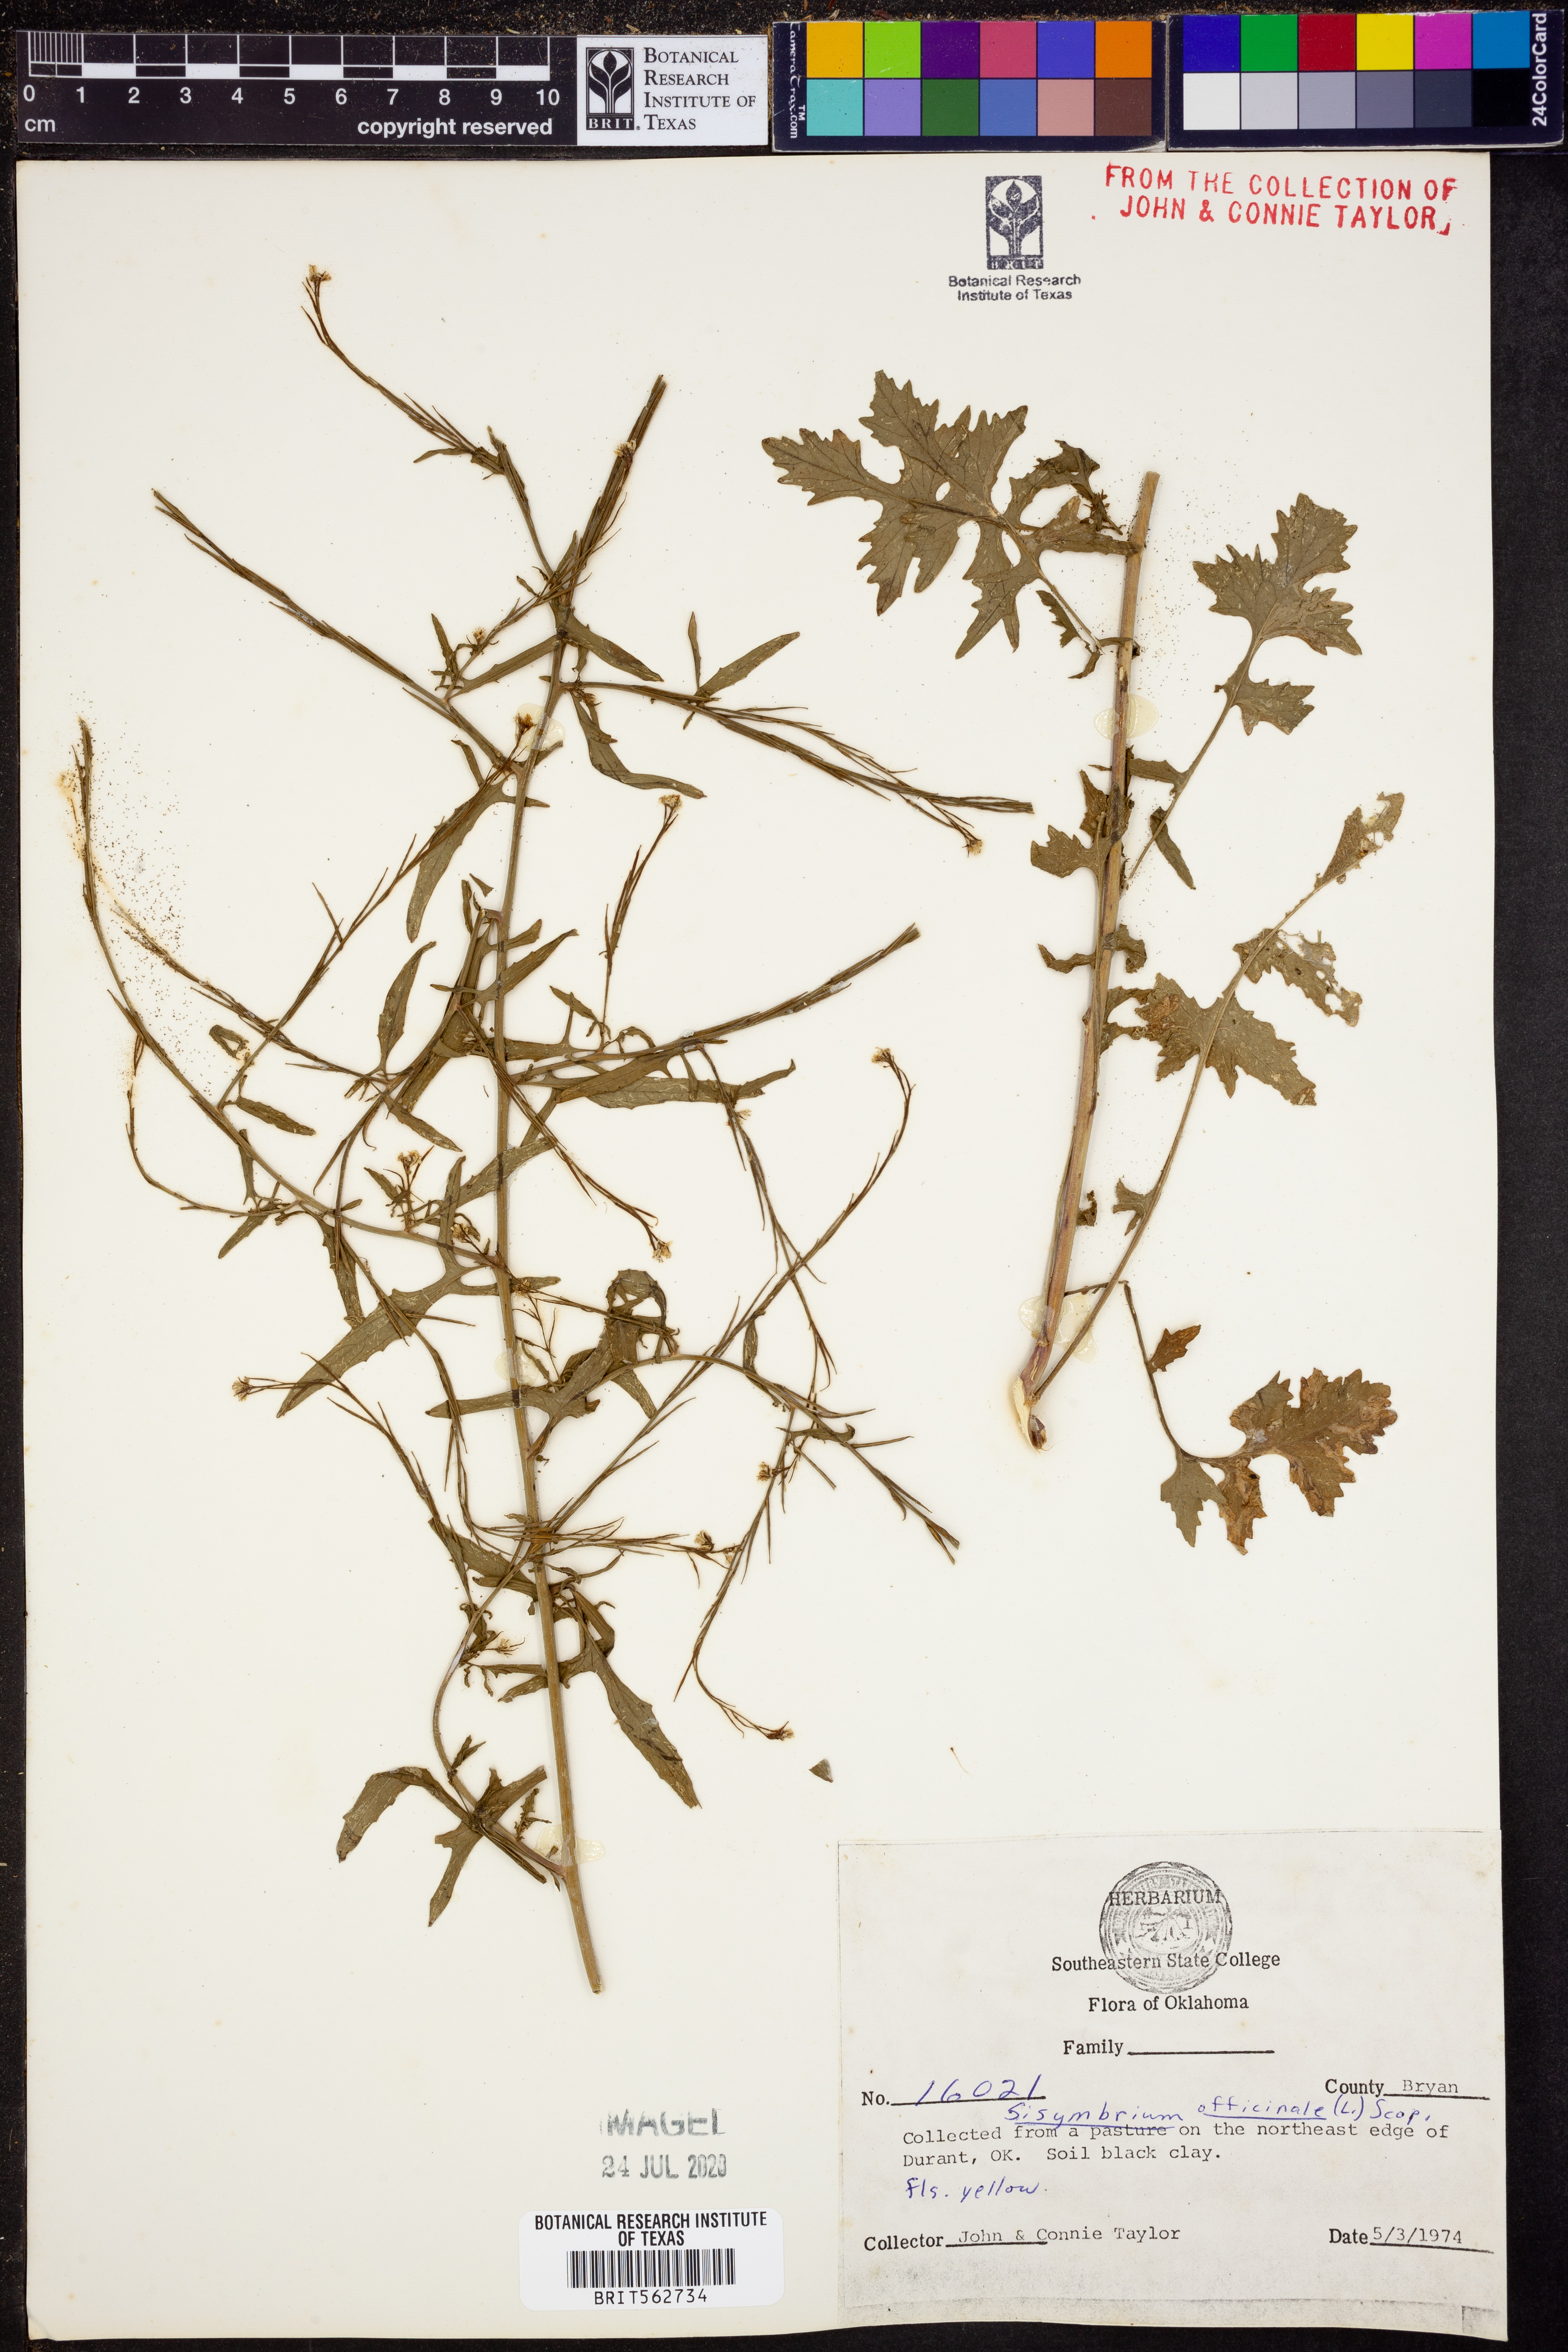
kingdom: Plantae
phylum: Tracheophyta
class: Magnoliopsida
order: Brassicales
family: Brassicaceae
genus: Sisymbrium
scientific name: Sisymbrium officinale
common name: Hedge mustard
